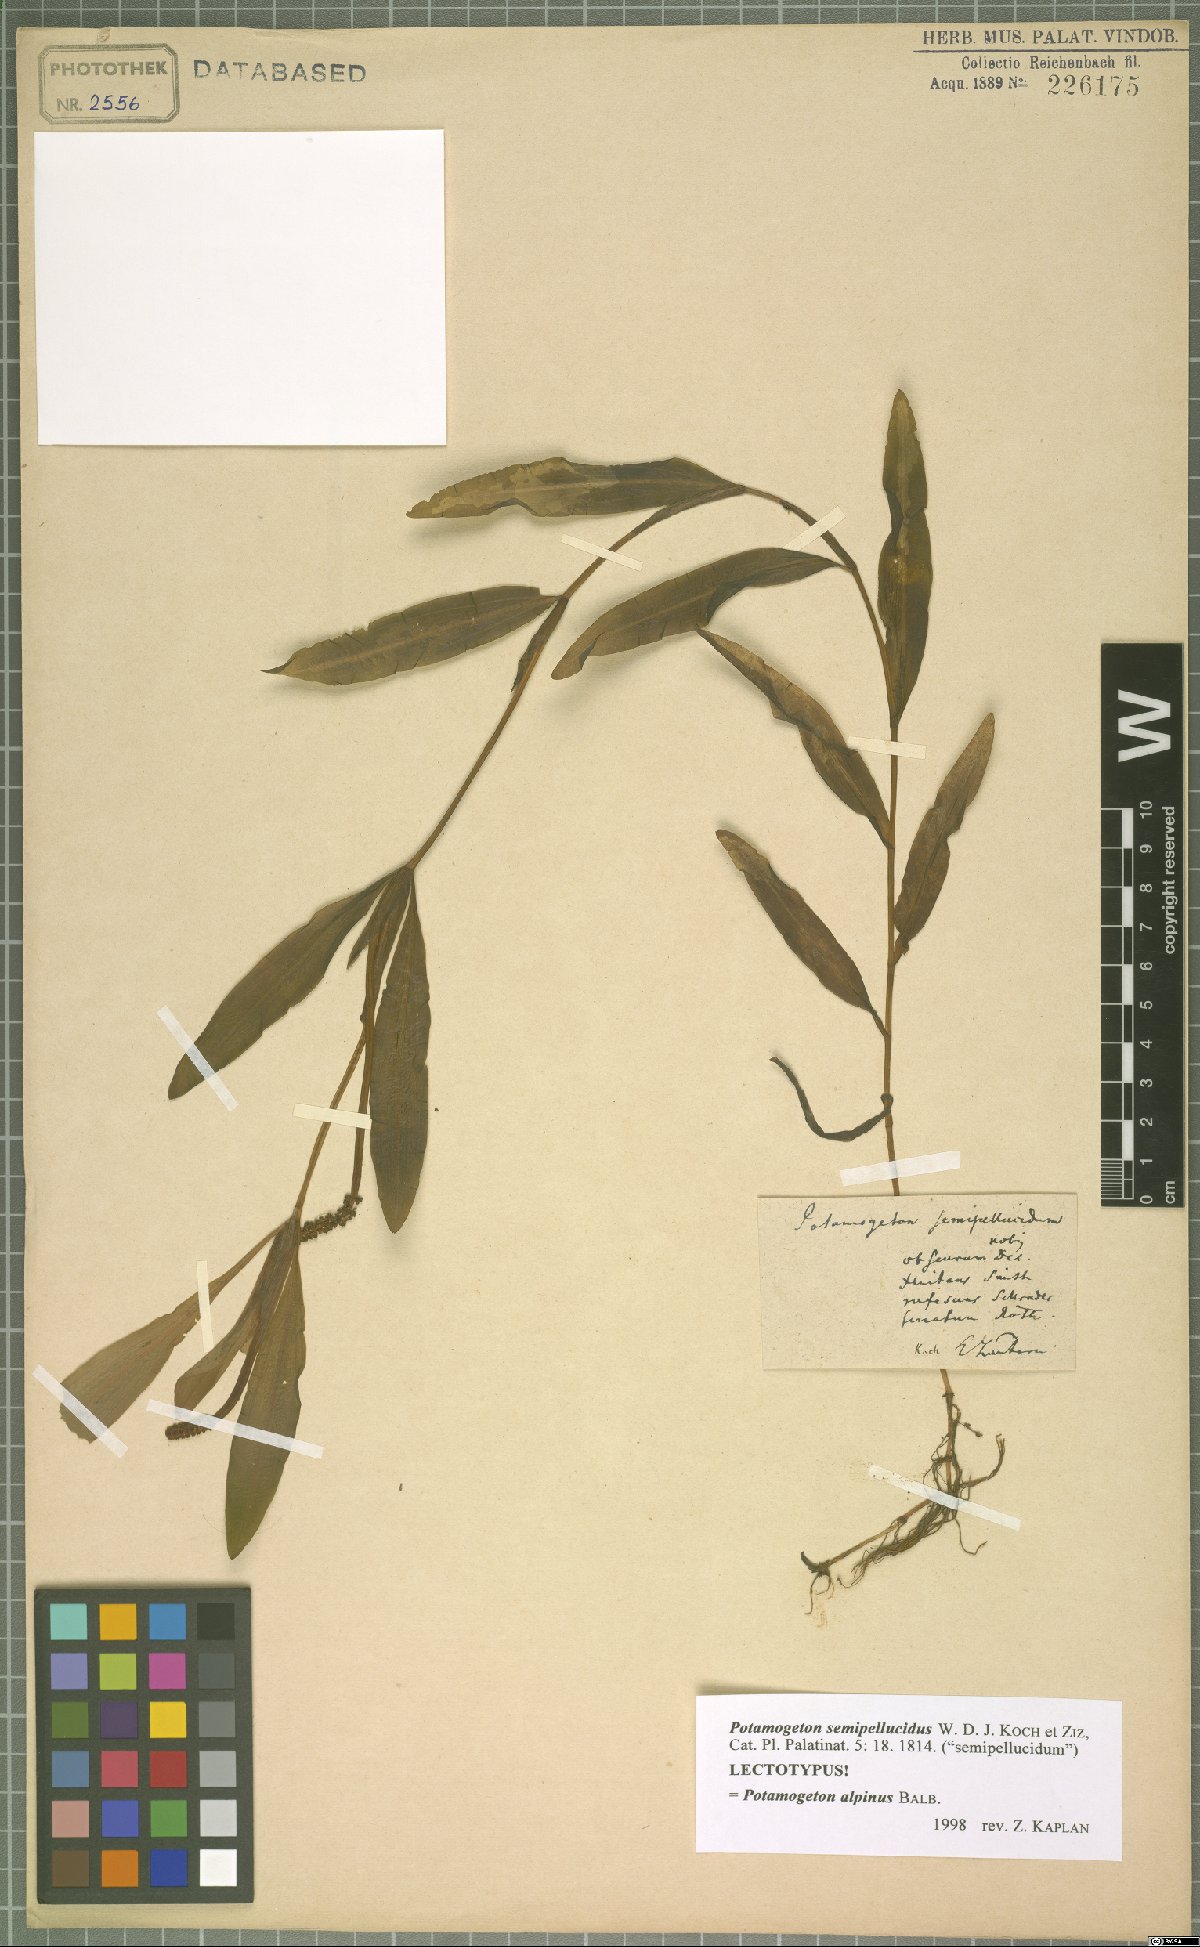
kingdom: Plantae
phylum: Tracheophyta
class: Liliopsida
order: Alismatales
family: Potamogetonaceae
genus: Potamogeton
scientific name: Potamogeton alpinus
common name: Red pondweed
